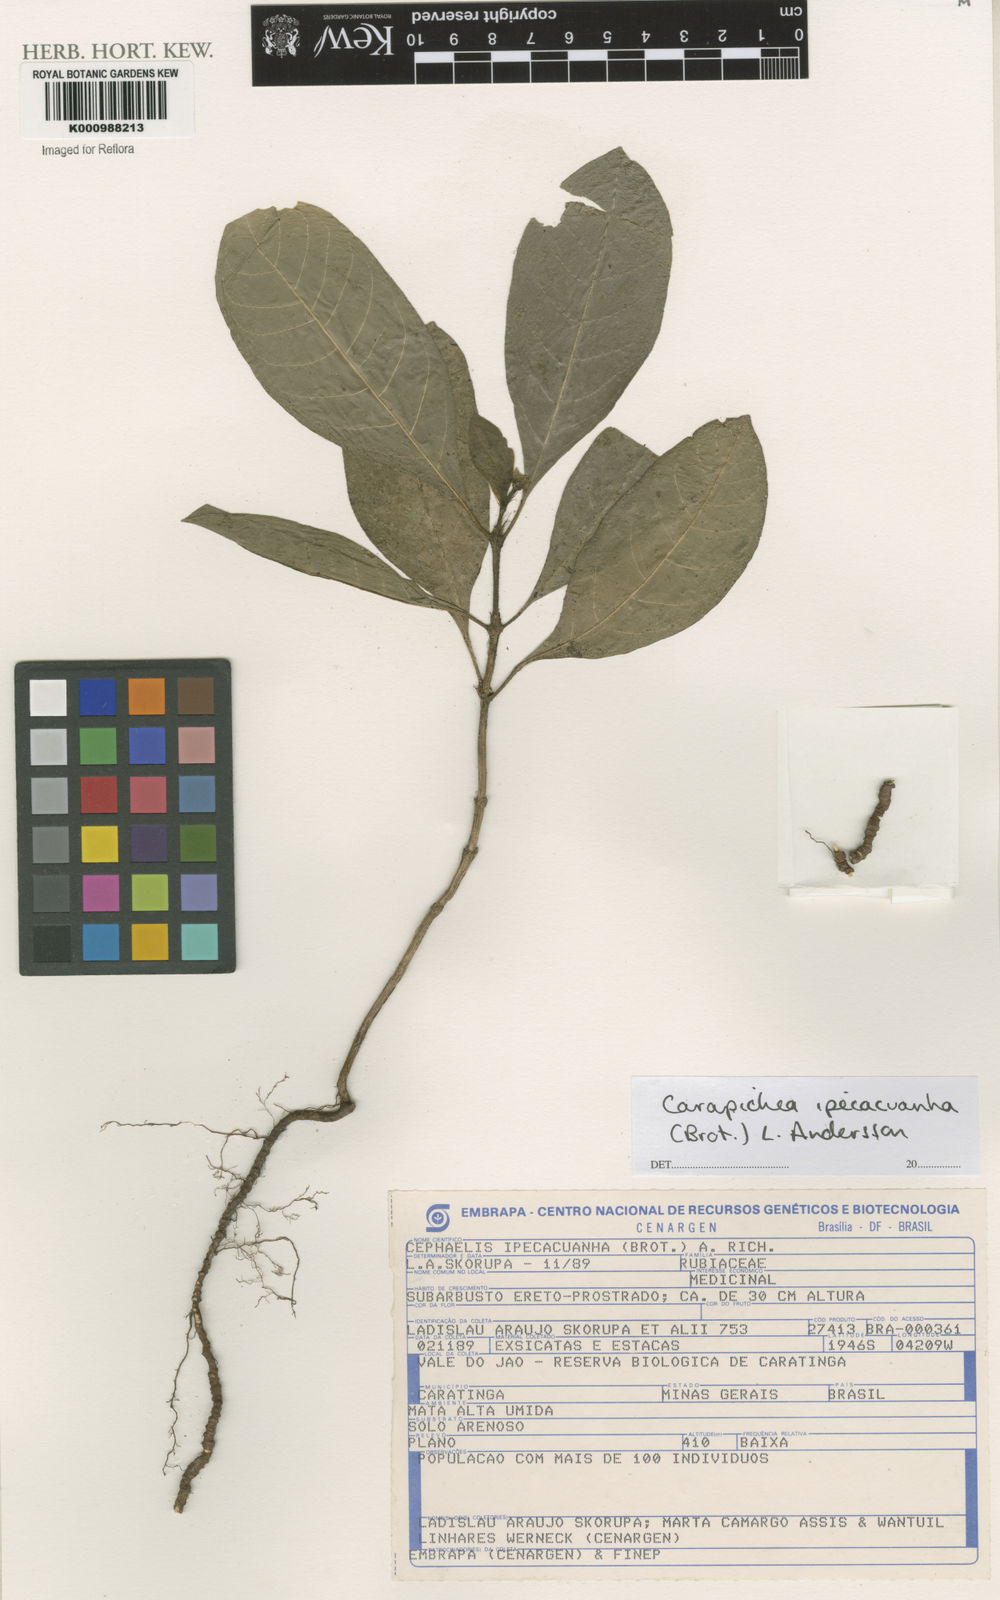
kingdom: Plantae
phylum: Tracheophyta
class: Magnoliopsida
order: Gentianales
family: Rubiaceae
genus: Carapichea
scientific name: Carapichea ipecacuanha
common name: Ipecac
